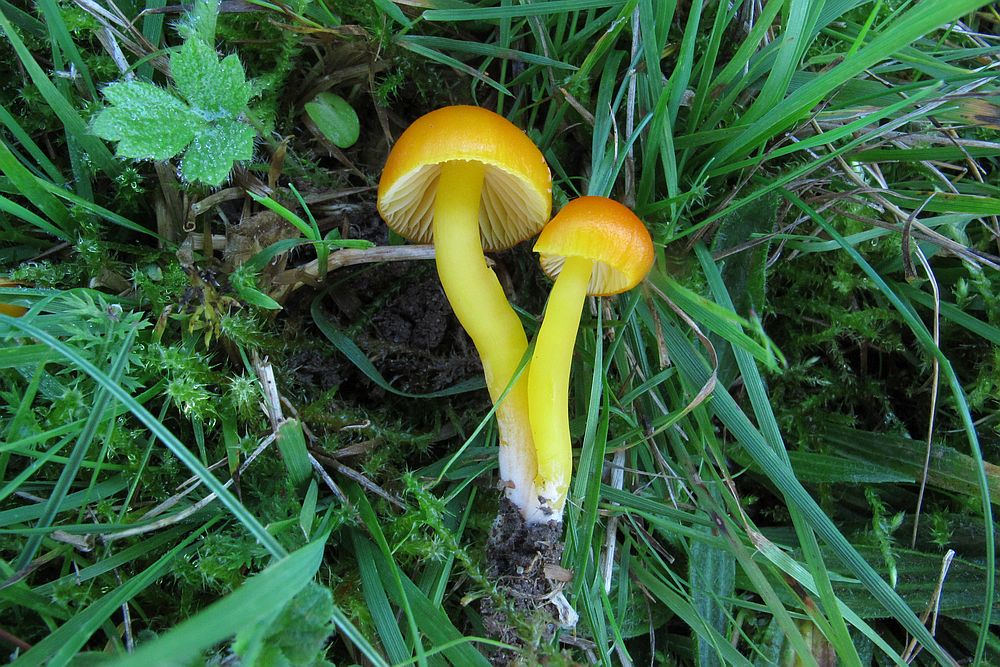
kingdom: Fungi
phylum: Basidiomycota
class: Agaricomycetes
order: Agaricales
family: Hygrophoraceae
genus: Hygrocybe
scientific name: Hygrocybe ceracea
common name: voksgul vokshat
